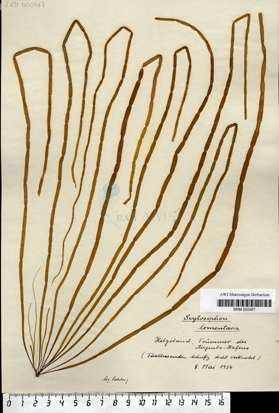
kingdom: Chromista
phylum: Ochrophyta
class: Phaeophyceae
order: Scytosiphonales
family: Scytosiphonaceae
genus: Scytosiphon
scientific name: Scytosiphon lomentaria
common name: Beanweed
